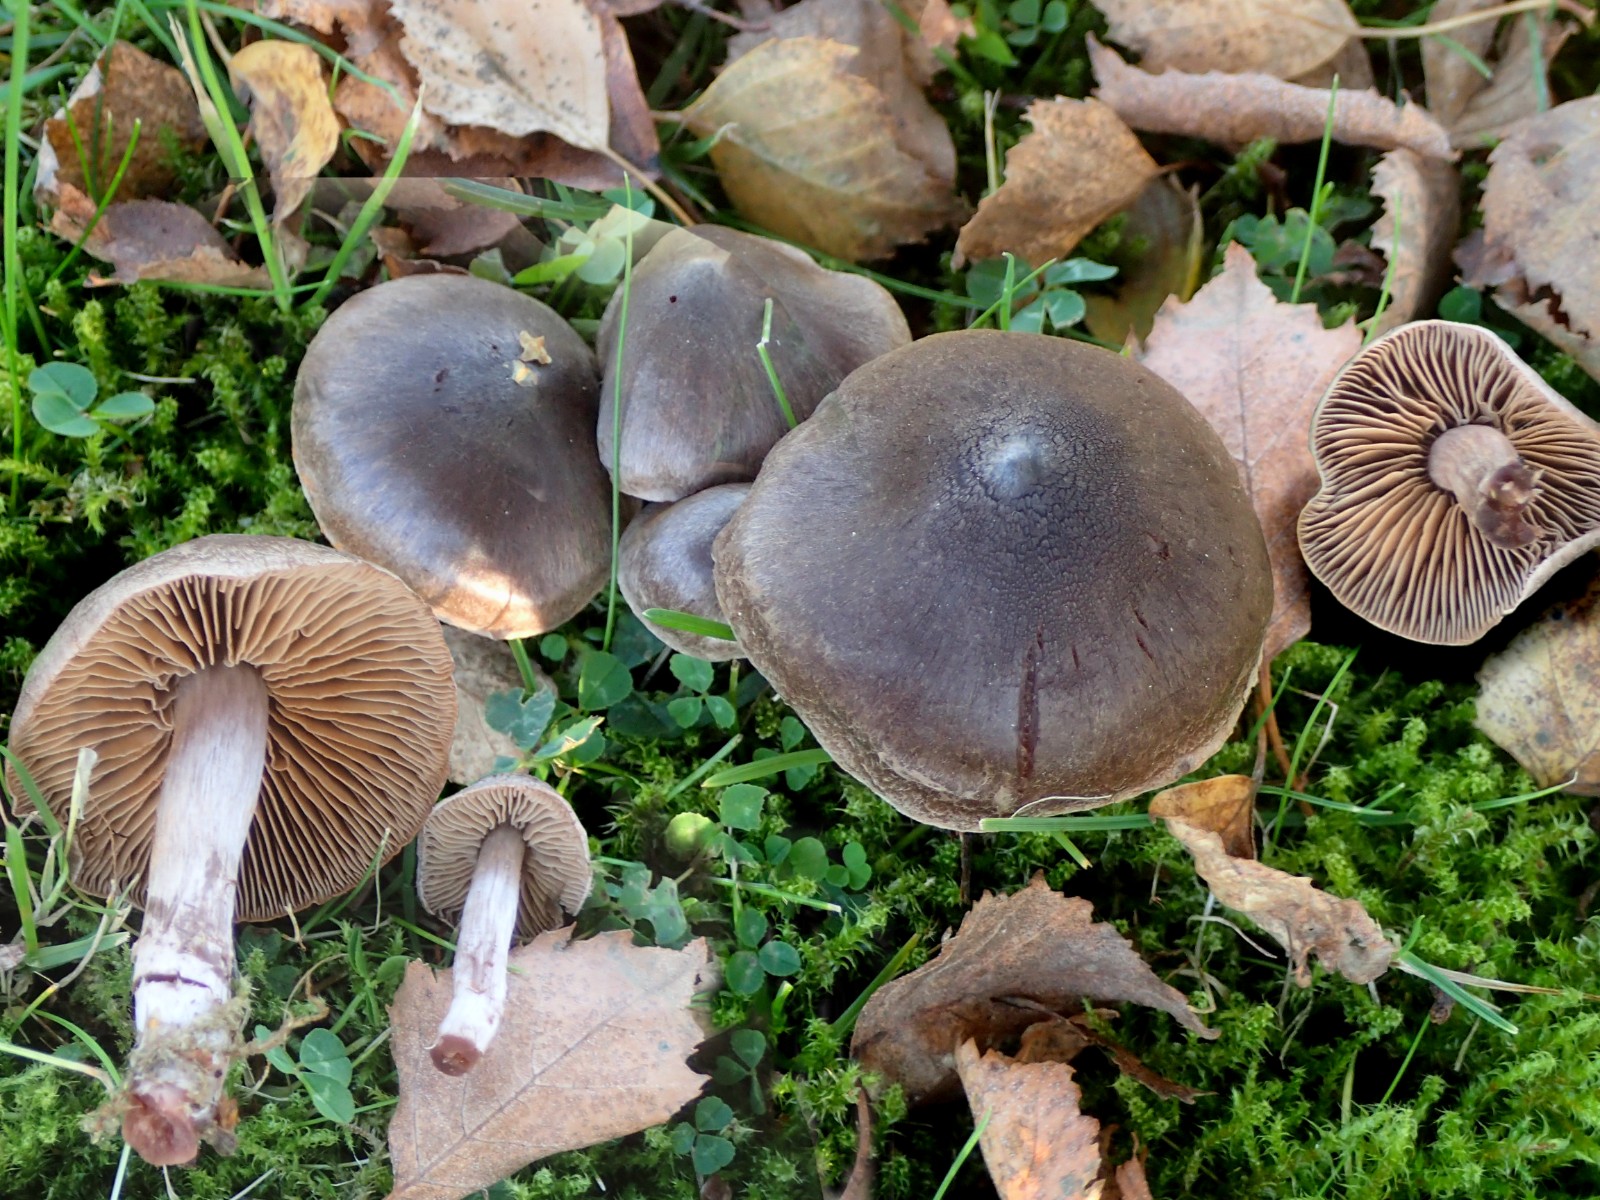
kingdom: Fungi
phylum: Basidiomycota
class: Agaricomycetes
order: Agaricales
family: Cortinariaceae
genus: Cortinarius
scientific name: Cortinarius
